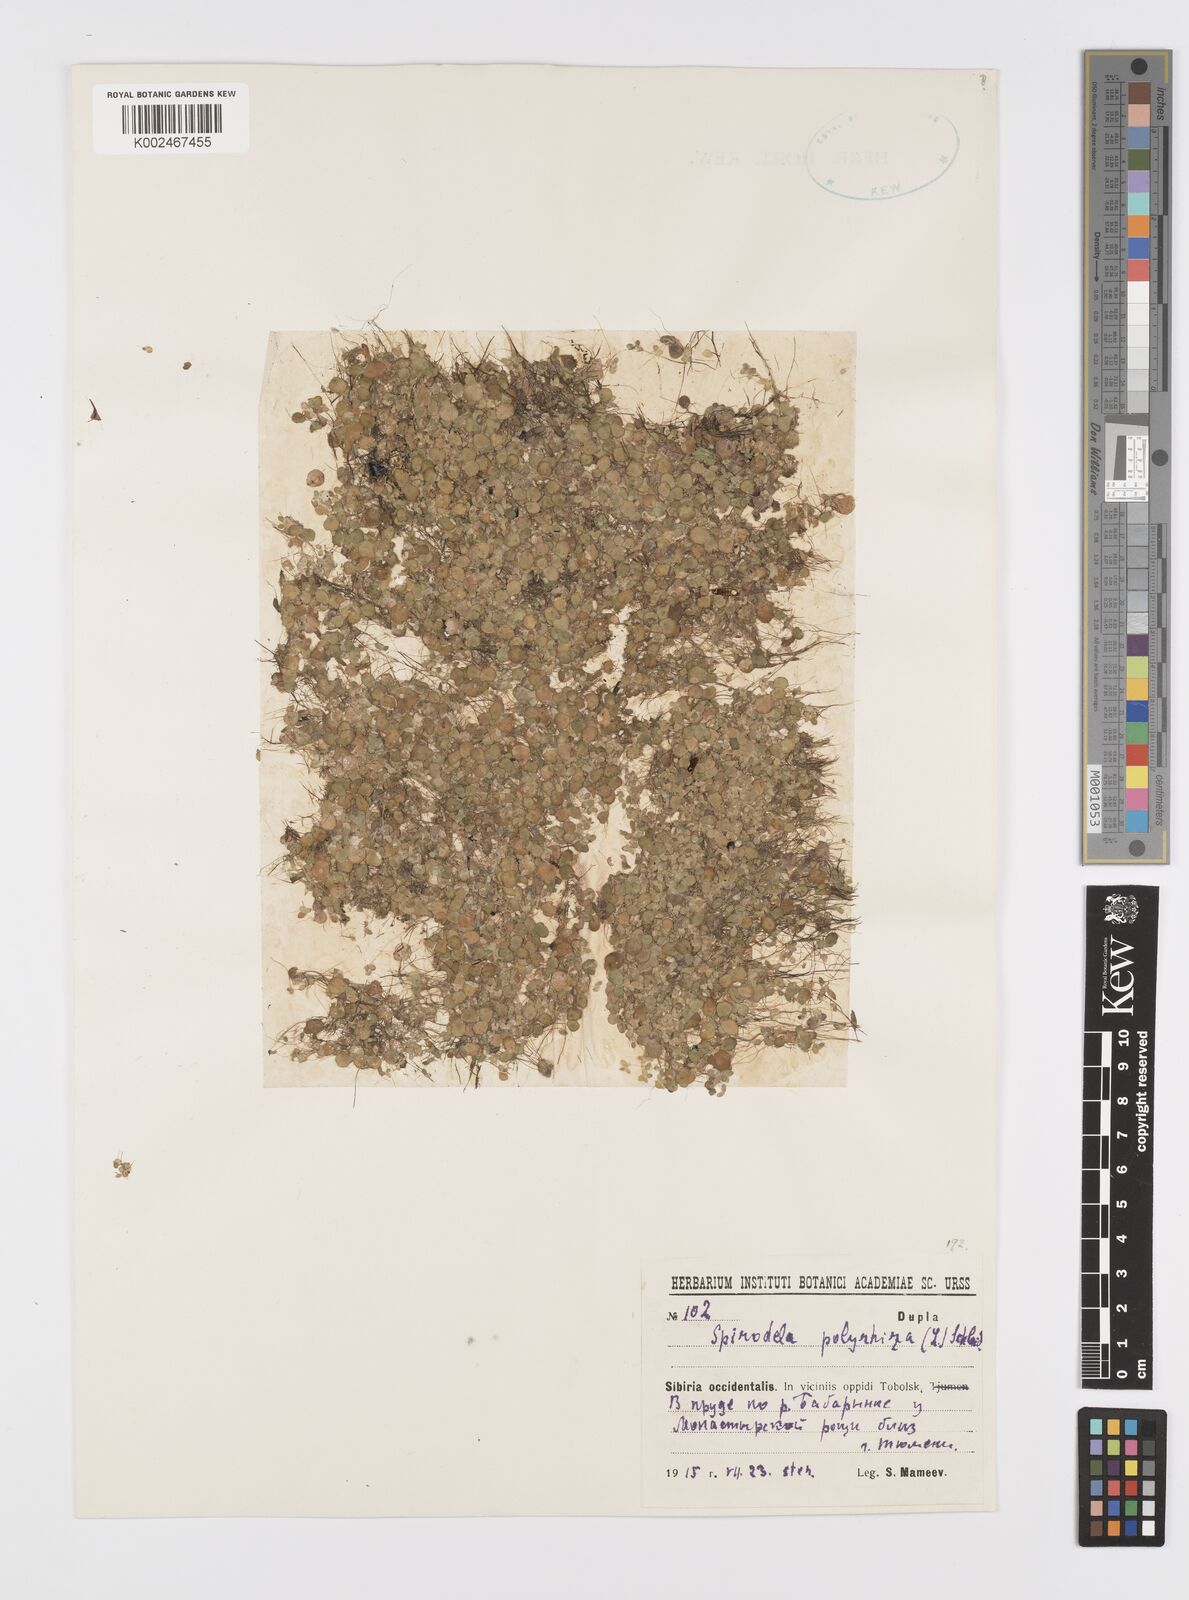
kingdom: Plantae
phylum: Tracheophyta
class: Liliopsida
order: Alismatales
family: Araceae
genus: Spirodela
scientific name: Spirodela polyrhiza
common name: Great duckweed
